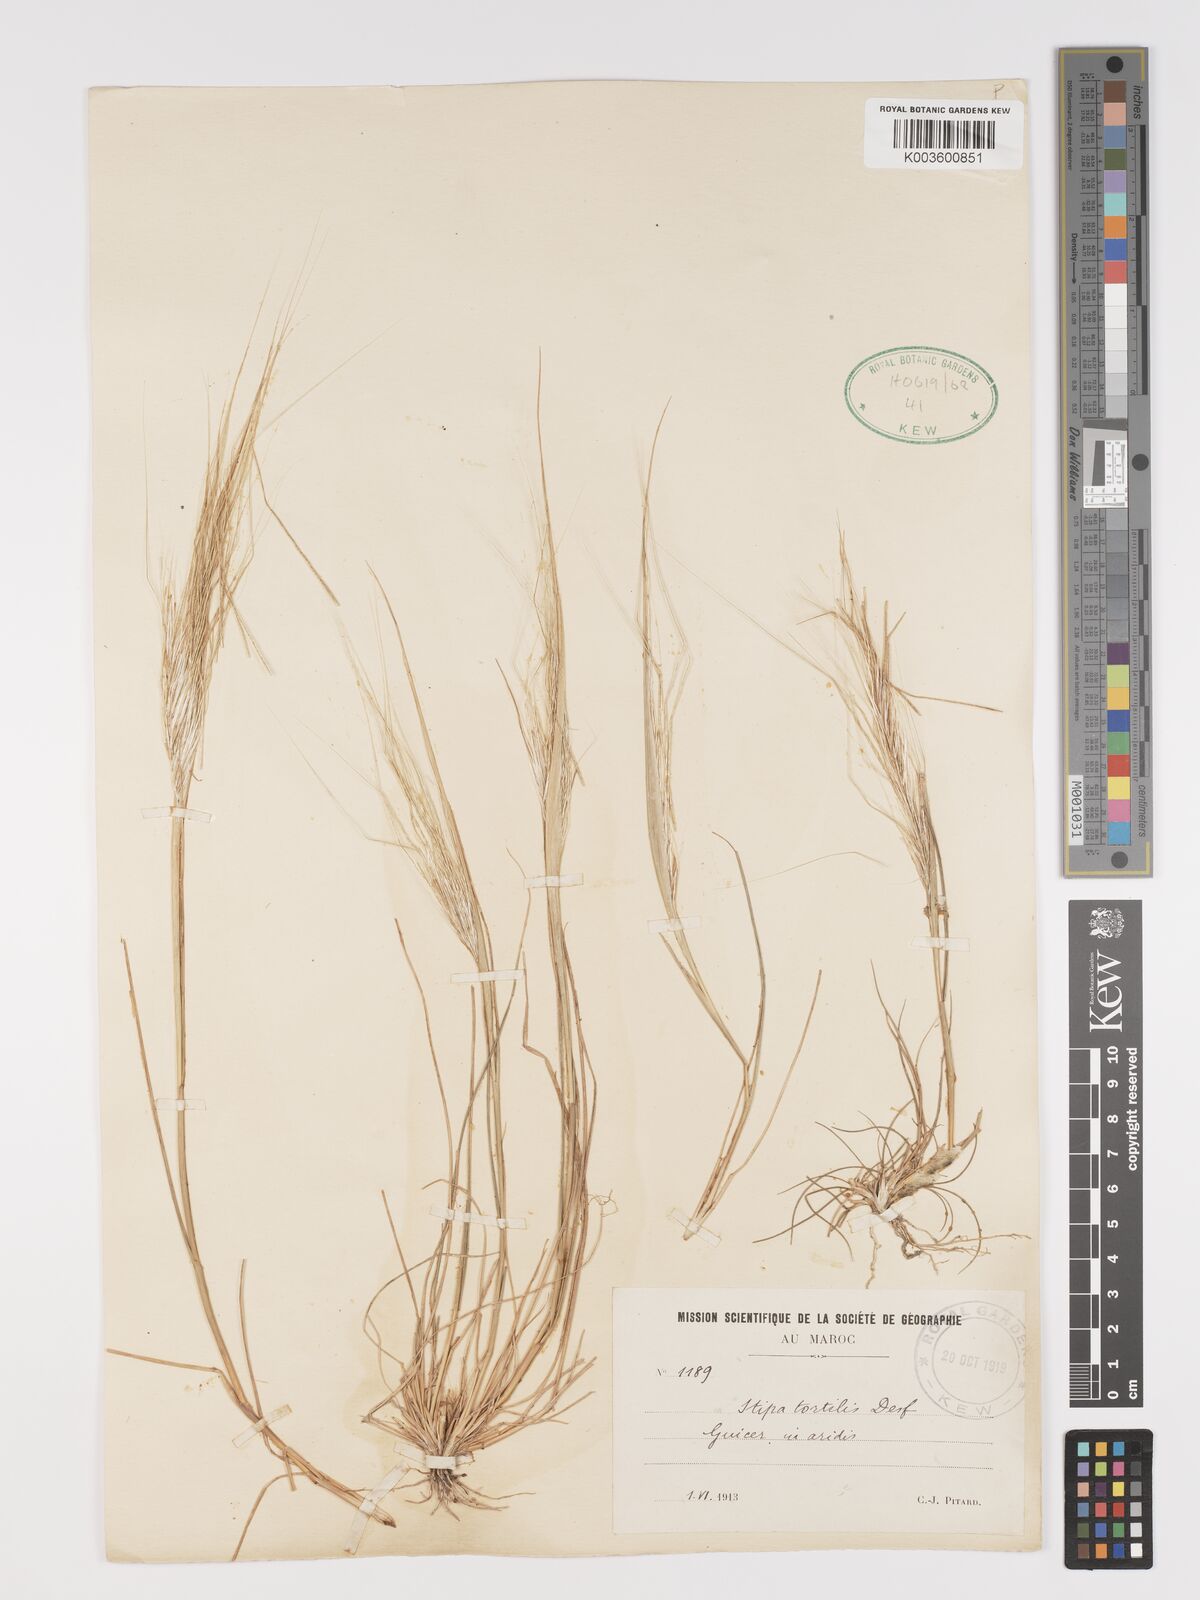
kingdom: Plantae
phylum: Tracheophyta
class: Liliopsida
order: Poales
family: Poaceae
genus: Stipellula
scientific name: Stipellula capensis
